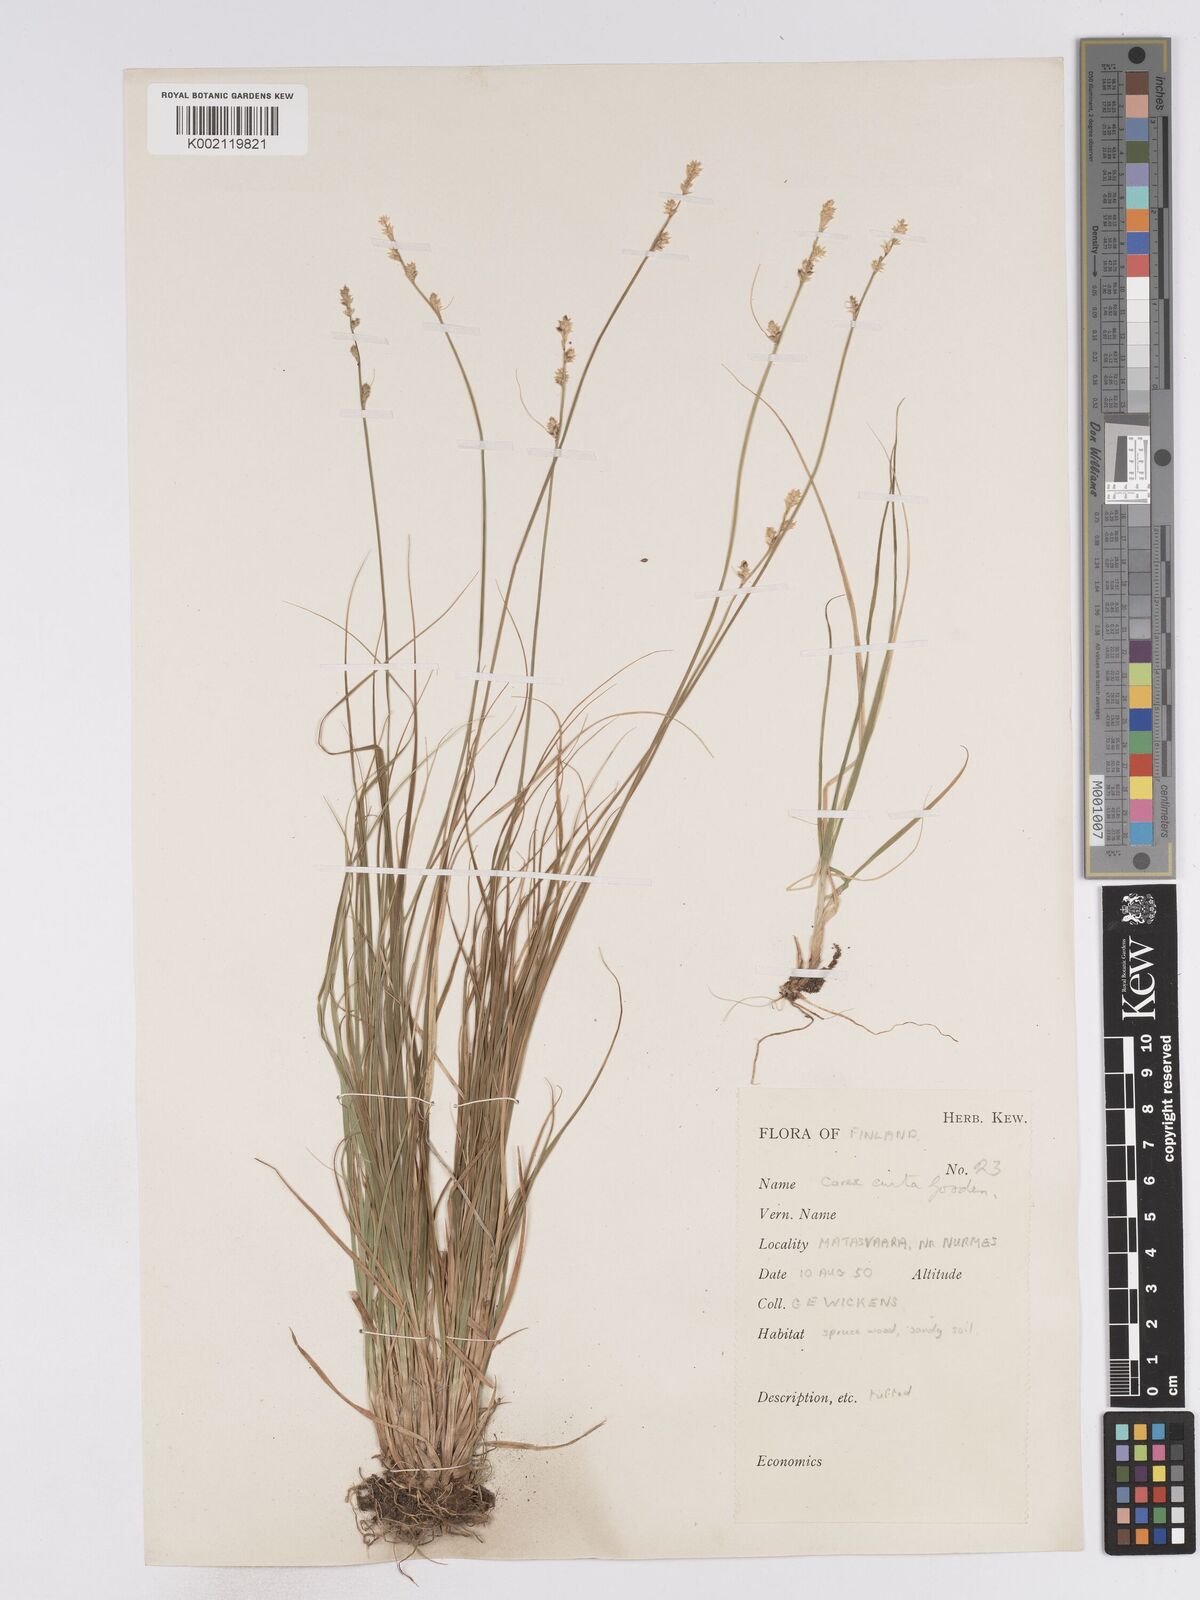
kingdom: Plantae
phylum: Tracheophyta
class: Liliopsida
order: Poales
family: Cyperaceae
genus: Carex
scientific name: Carex curta
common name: White sedge
